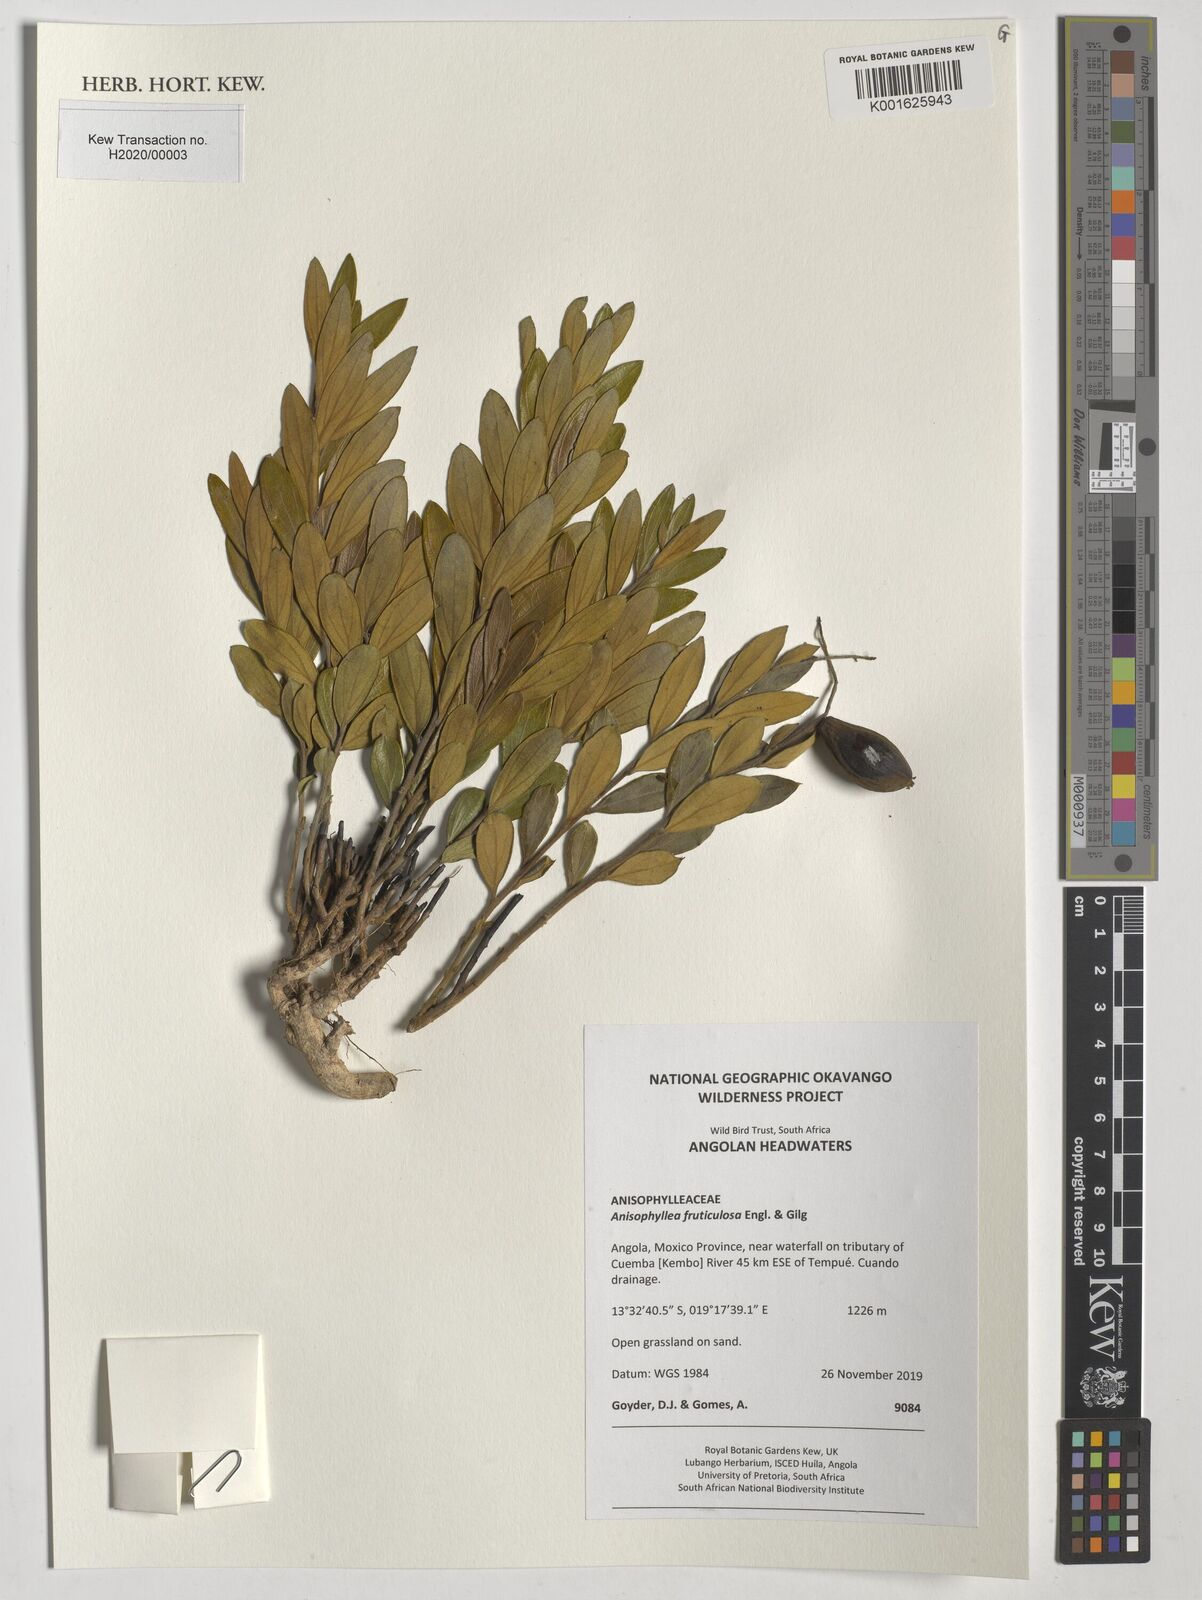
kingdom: Plantae
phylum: Tracheophyta
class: Magnoliopsida
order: Cucurbitales
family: Anisophylleaceae
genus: Anisophyllea
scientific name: Anisophyllea quangensis
